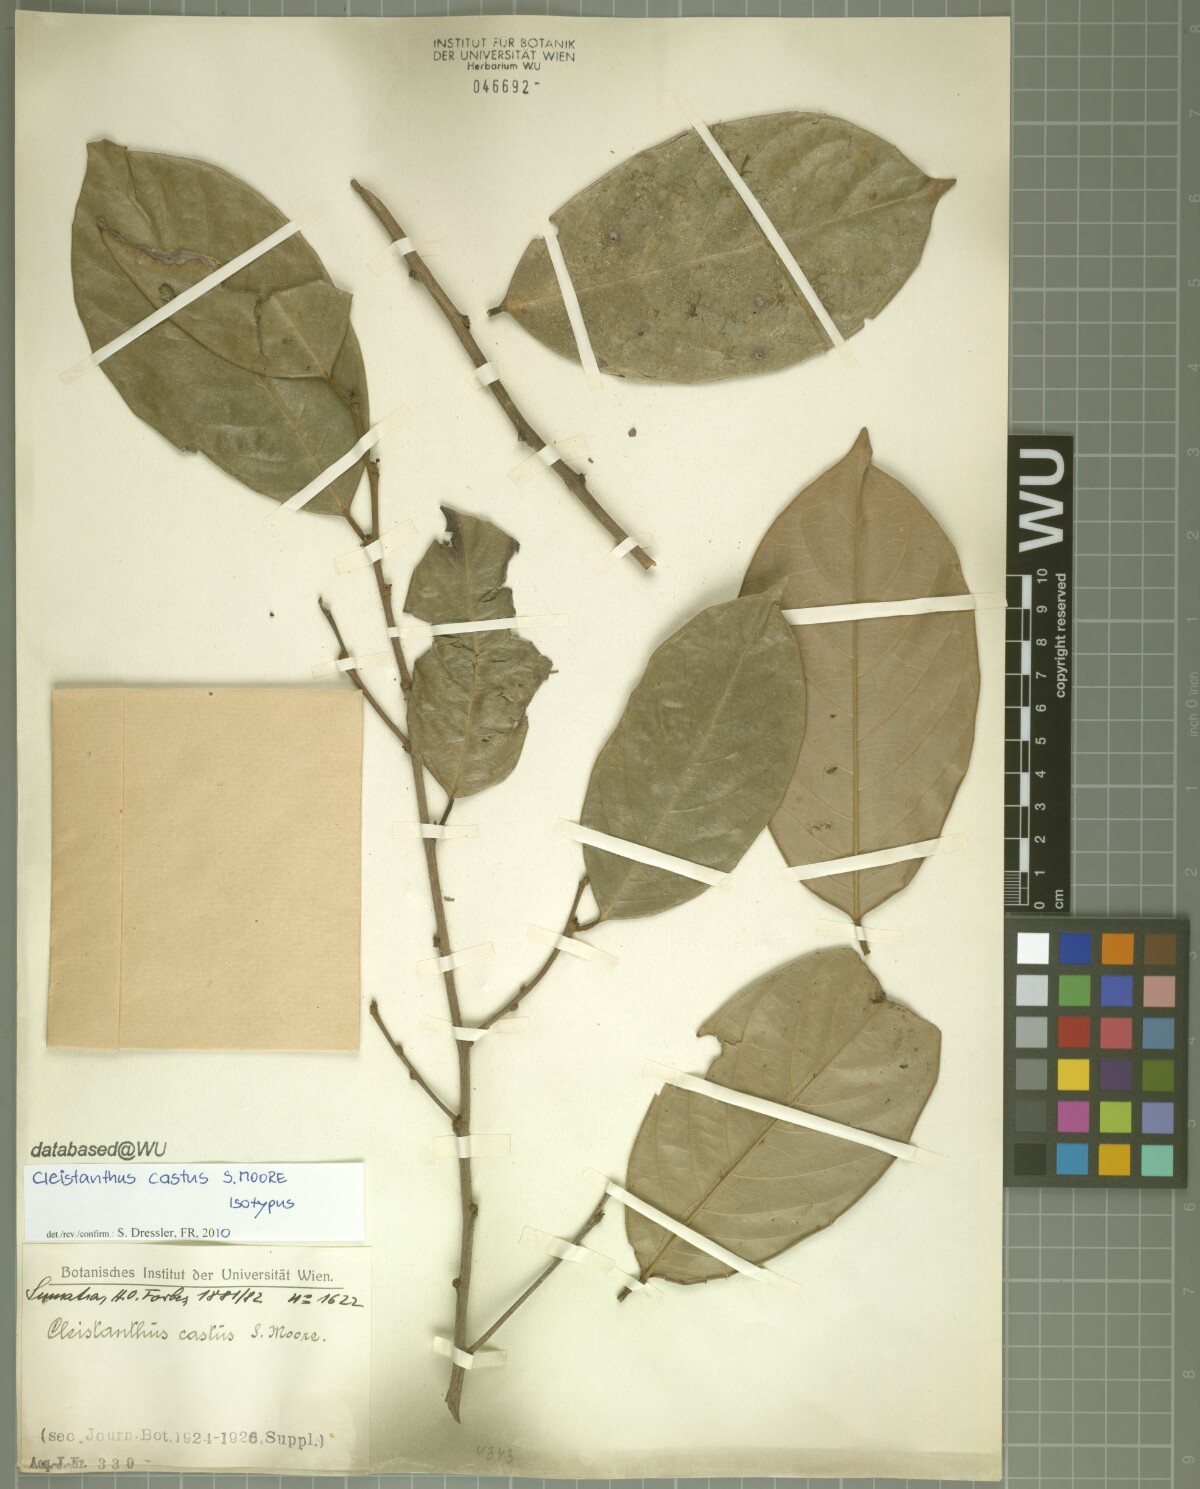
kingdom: Plantae
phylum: Tracheophyta
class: Magnoliopsida
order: Malpighiales
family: Phyllanthaceae
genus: Cleistanthus
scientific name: Cleistanthus oblongifolius
